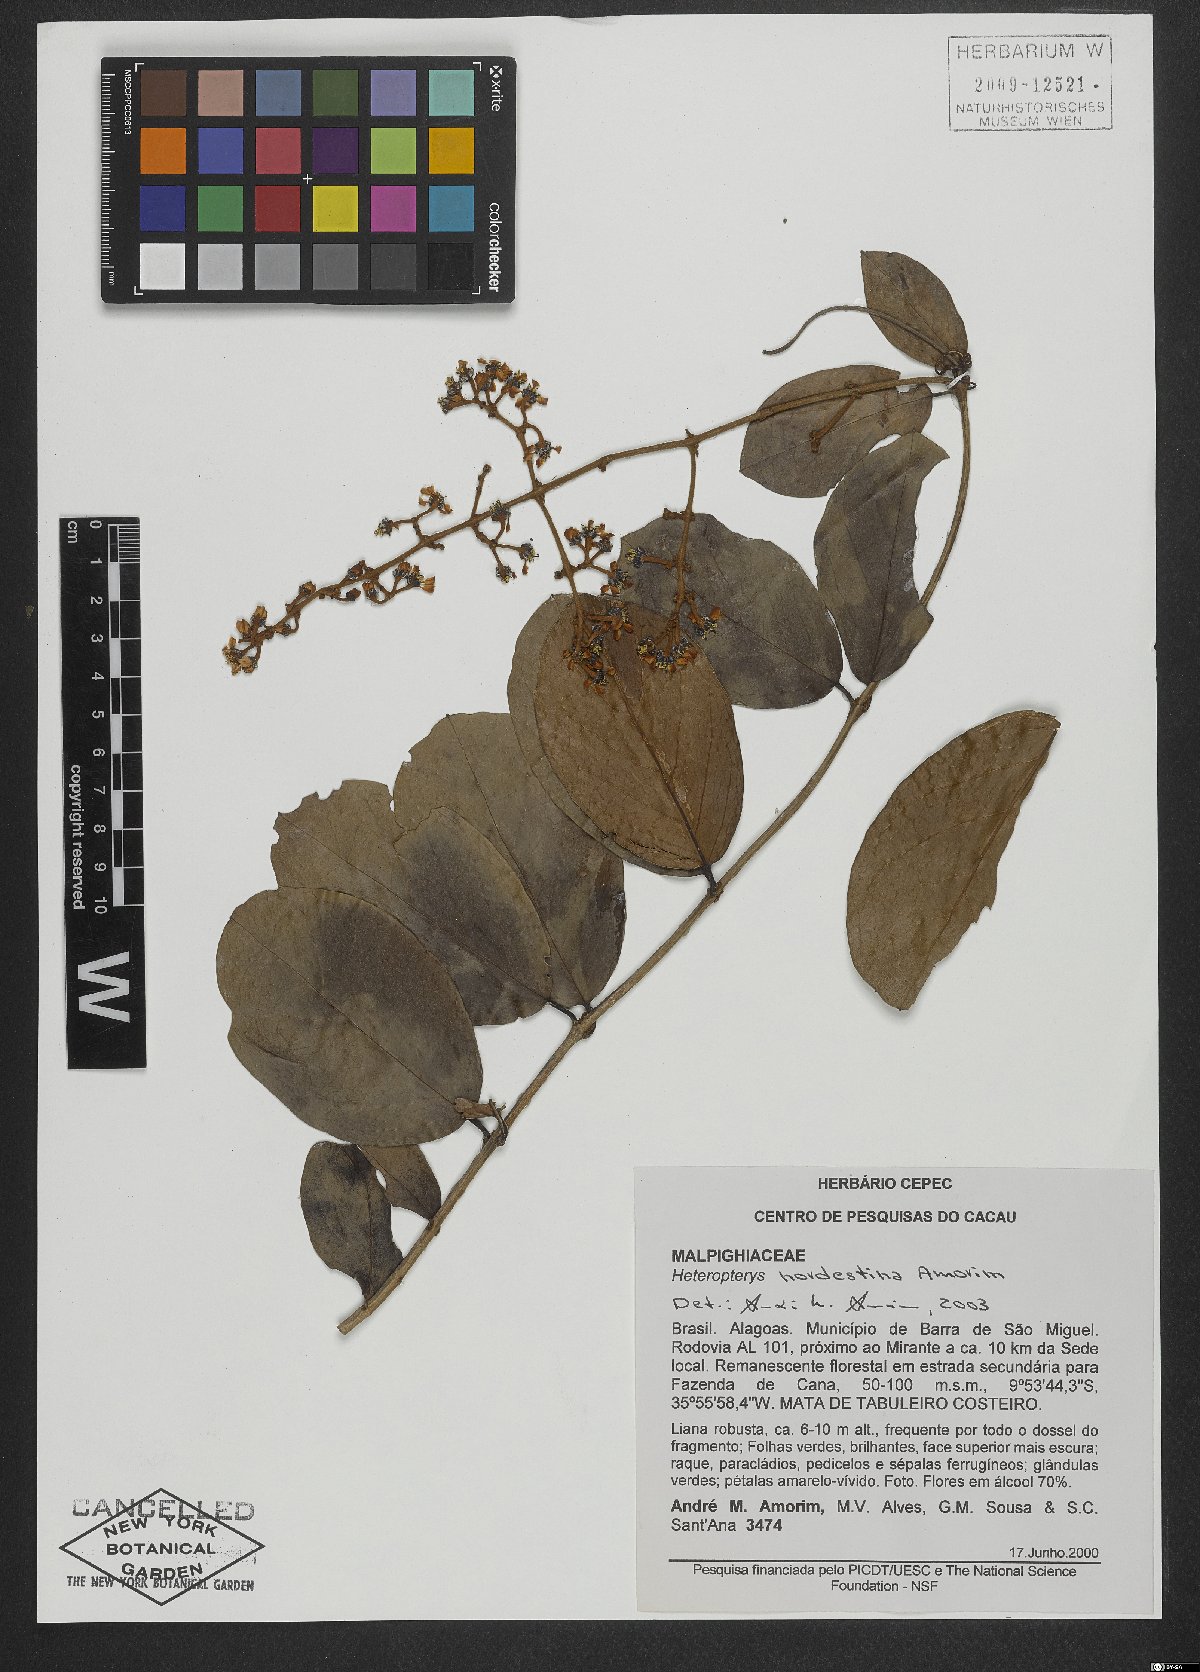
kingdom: Plantae
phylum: Tracheophyta
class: Magnoliopsida
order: Malpighiales
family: Malpighiaceae
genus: Heteropterys
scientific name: Heteropterys nordestina
